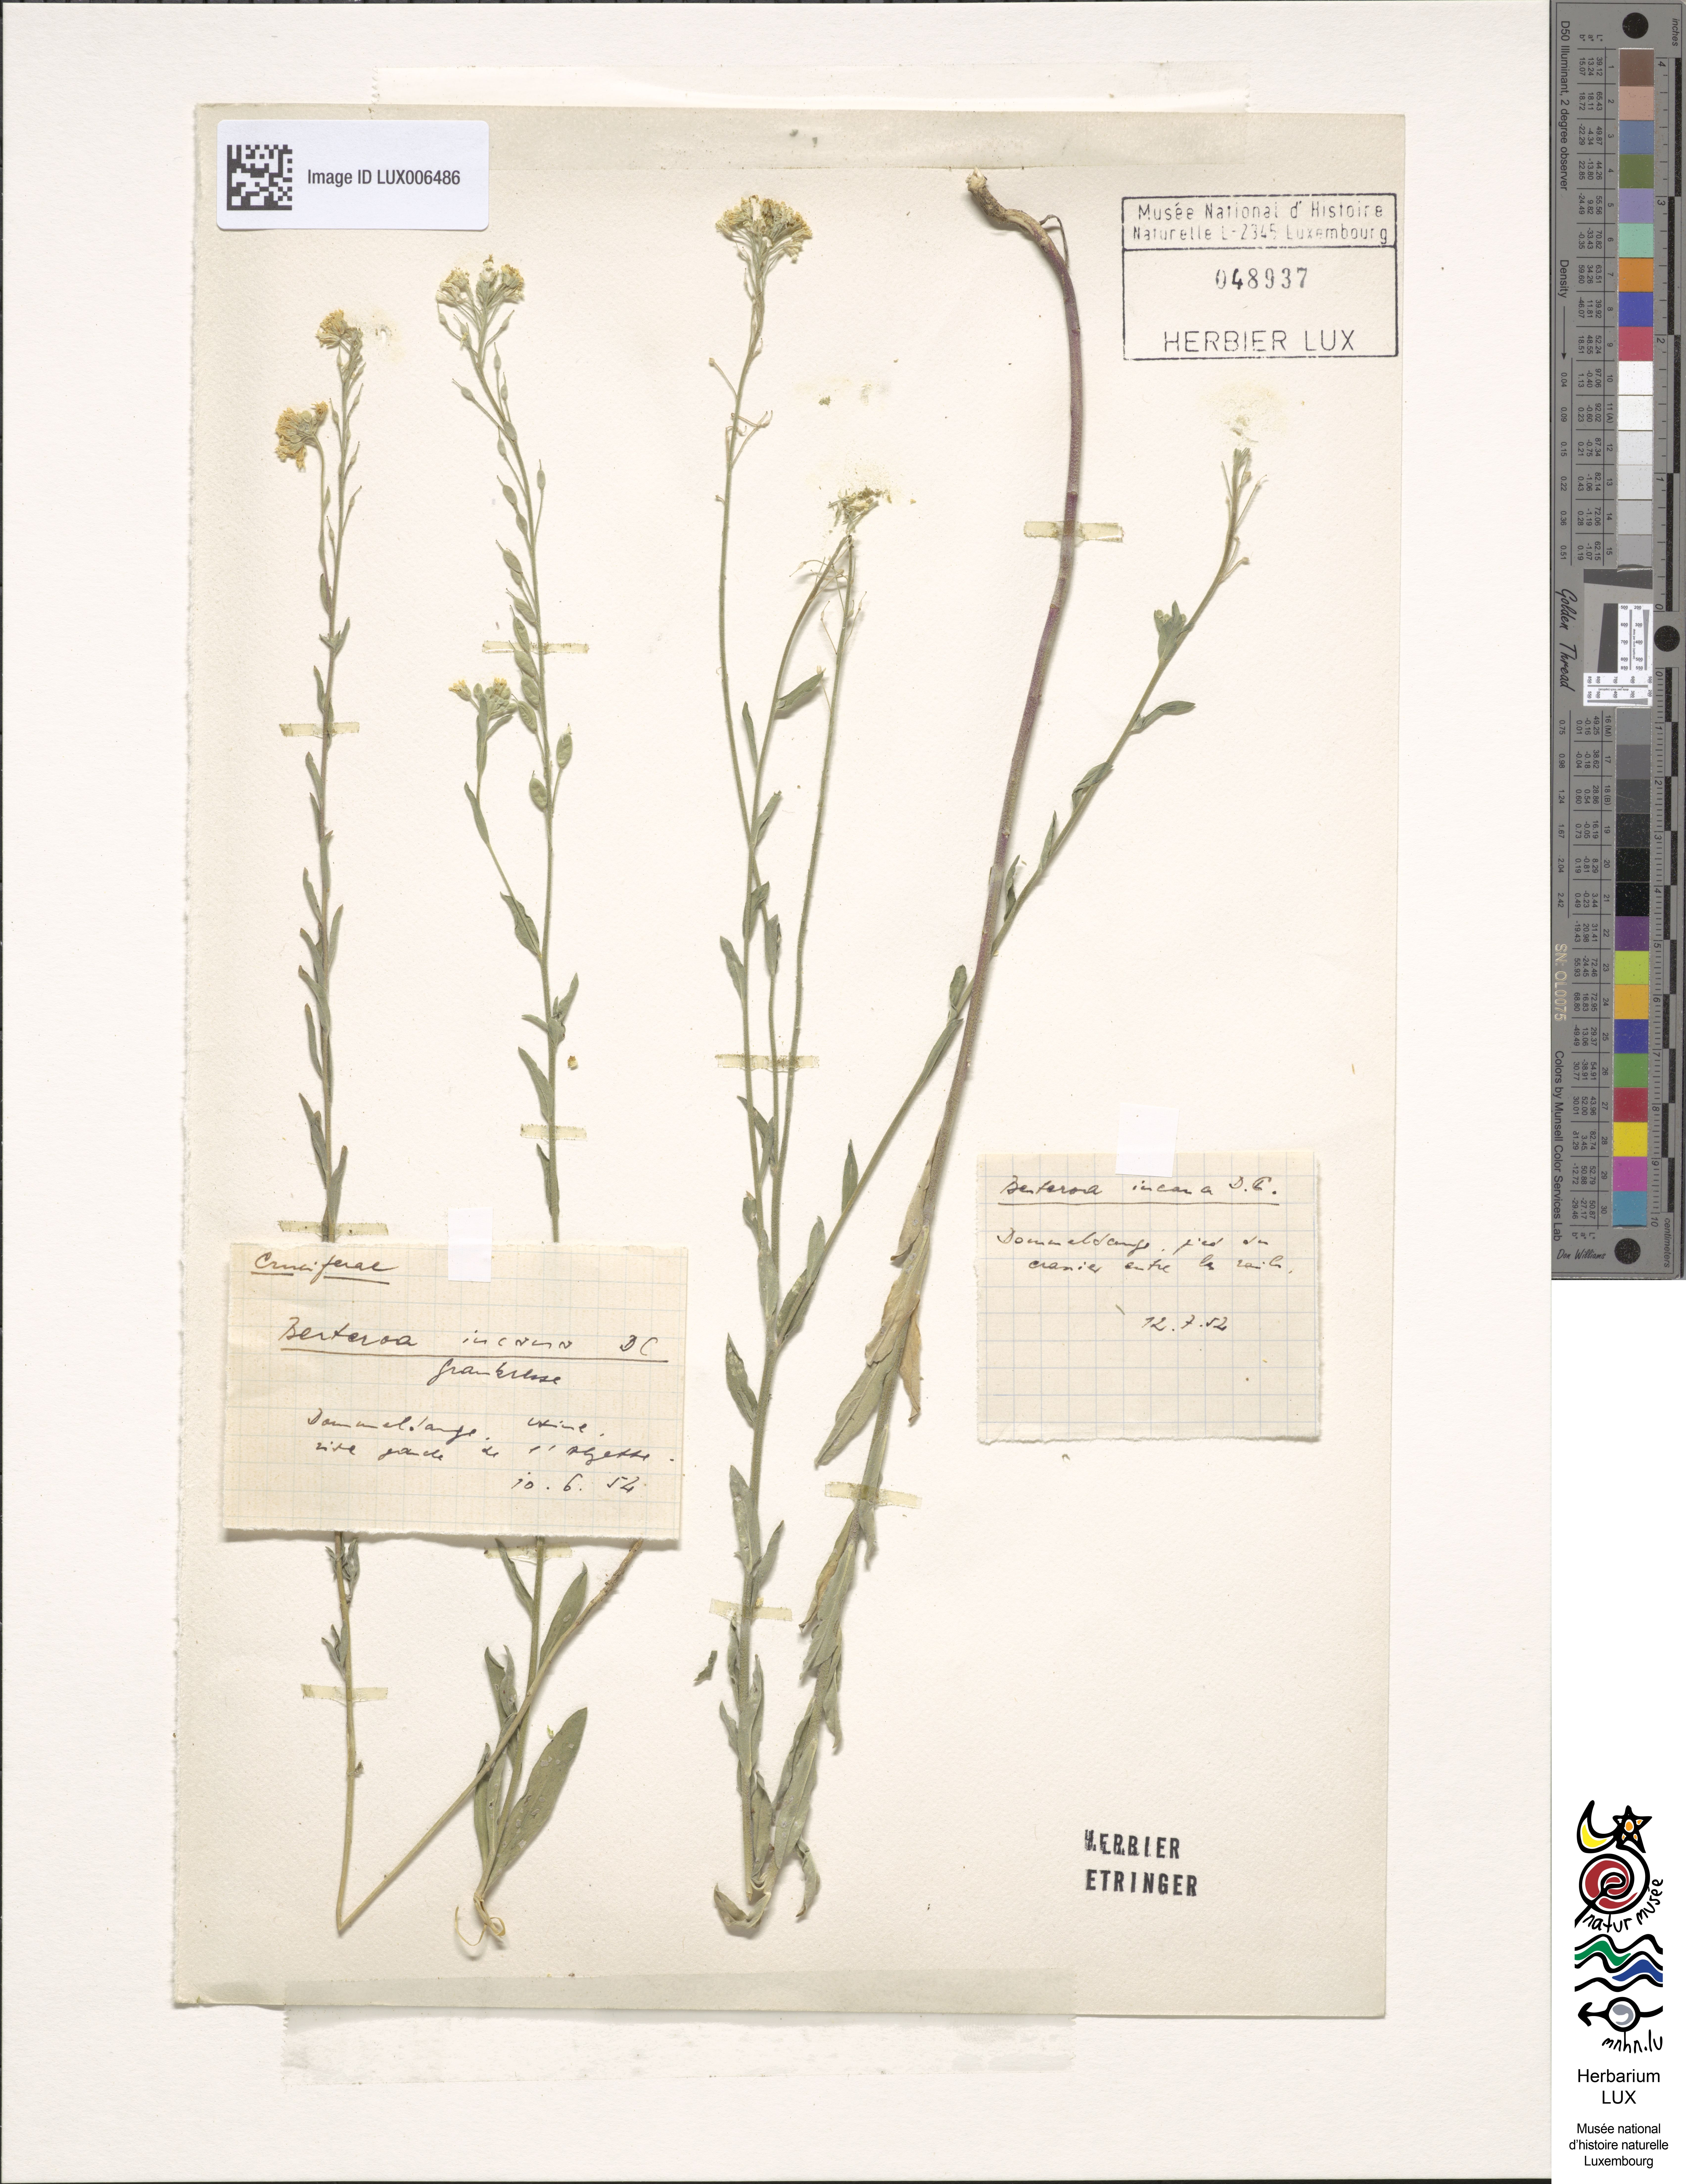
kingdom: Plantae
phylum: Tracheophyta
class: Magnoliopsida
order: Brassicales
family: Brassicaceae
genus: Berteroa
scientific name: Berteroa incana
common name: Hoary alison
